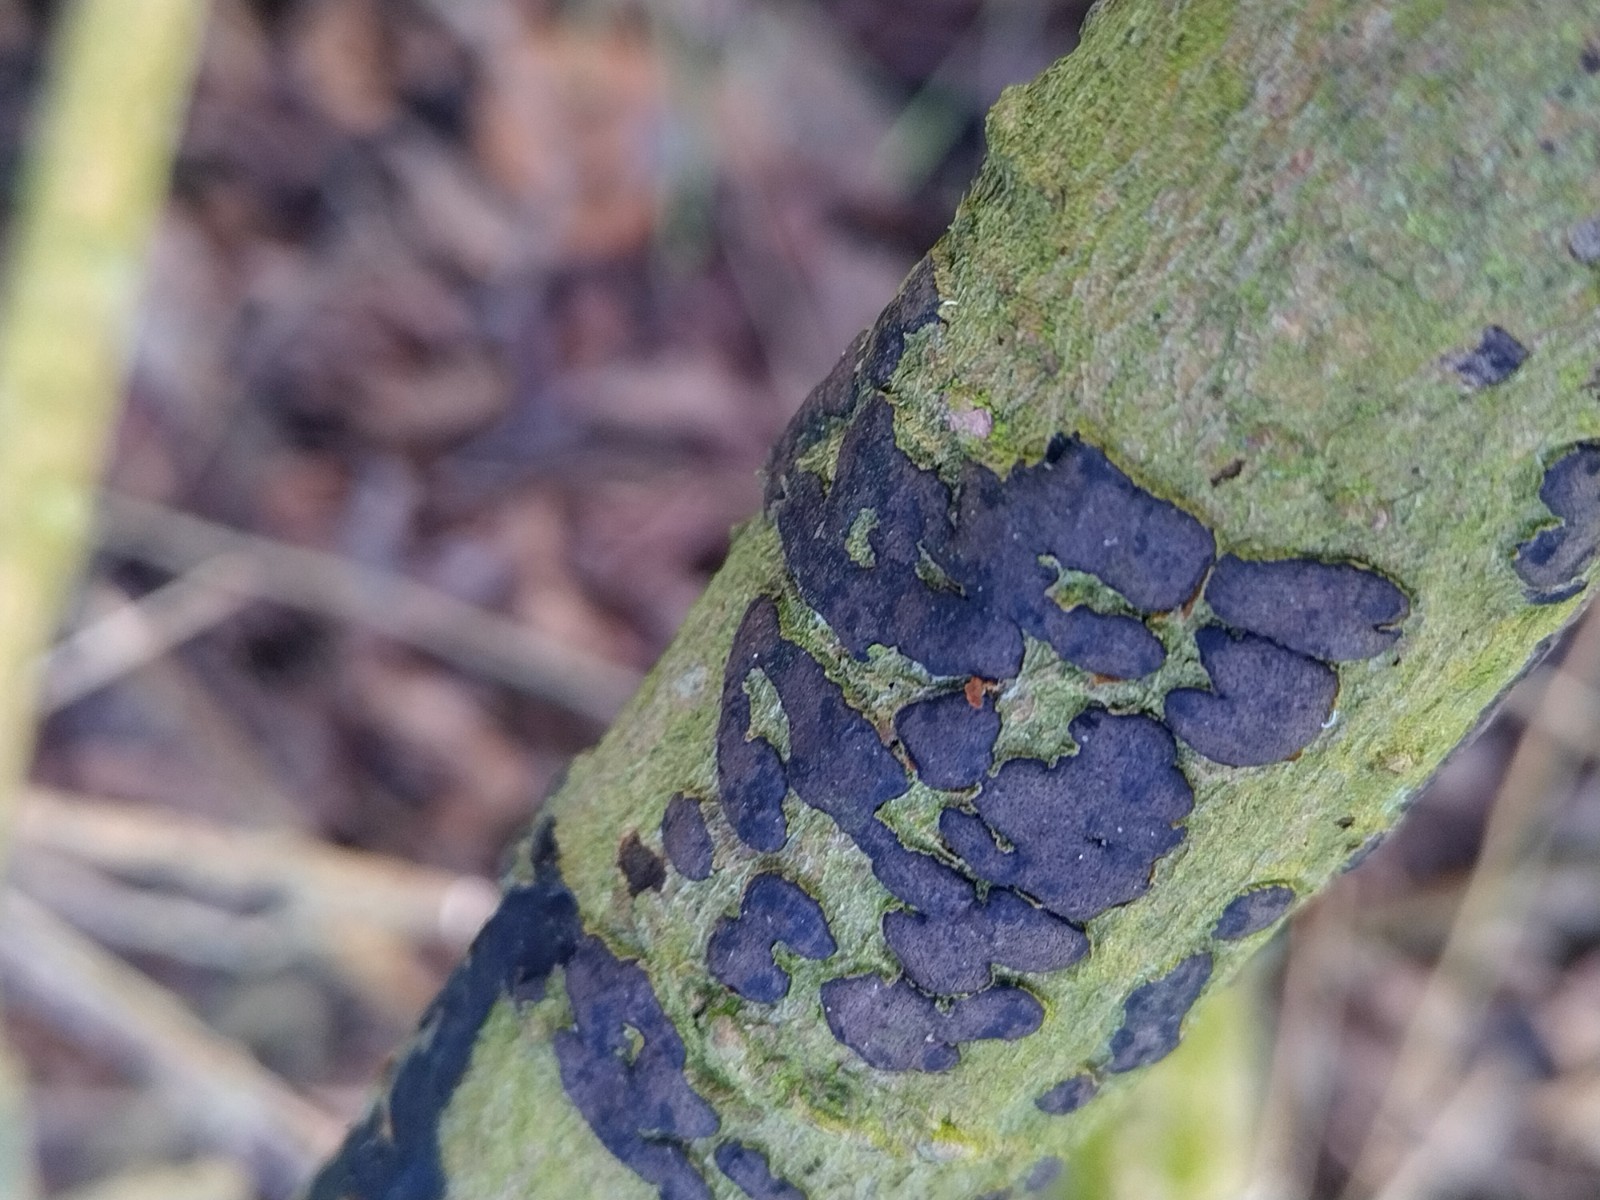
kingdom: Fungi
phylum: Ascomycota
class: Sordariomycetes
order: Xylariales
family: Diatrypaceae
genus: Diatrype
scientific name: Diatrype bullata
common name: pile-kulskorpe
